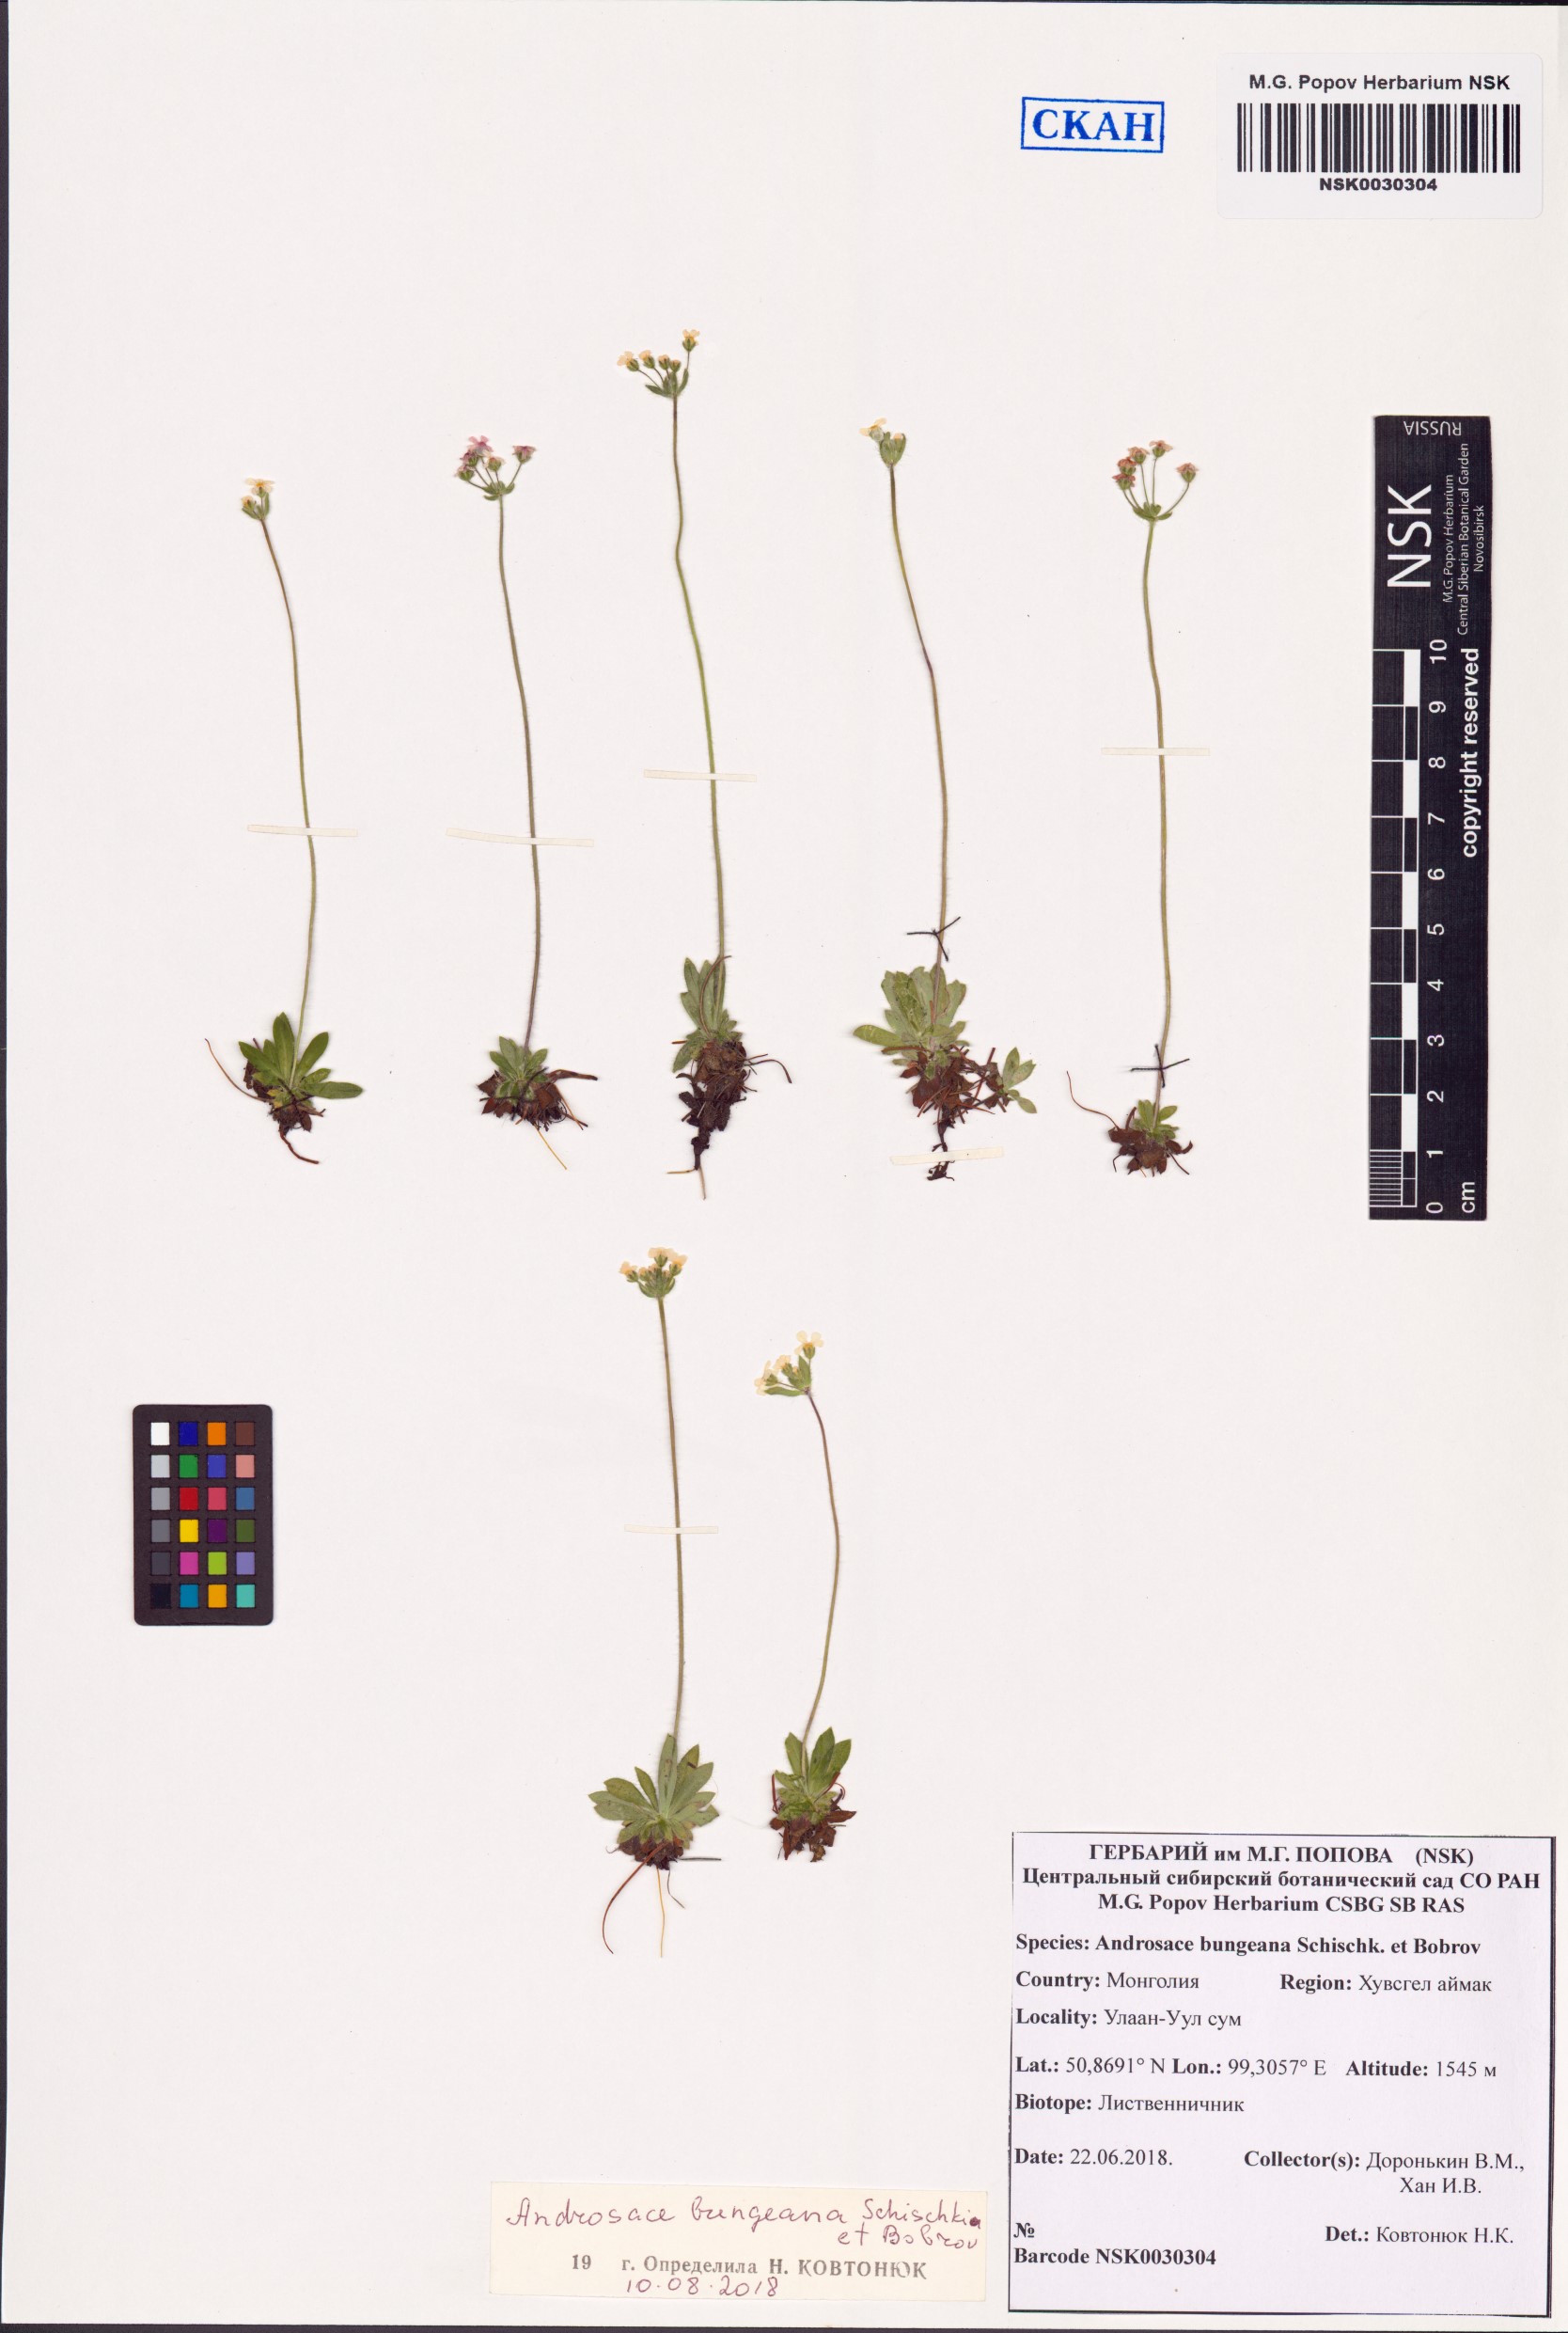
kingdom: Plantae
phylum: Tracheophyta
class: Magnoliopsida
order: Ericales
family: Primulaceae
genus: Androsace
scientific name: Androsace bungeana
